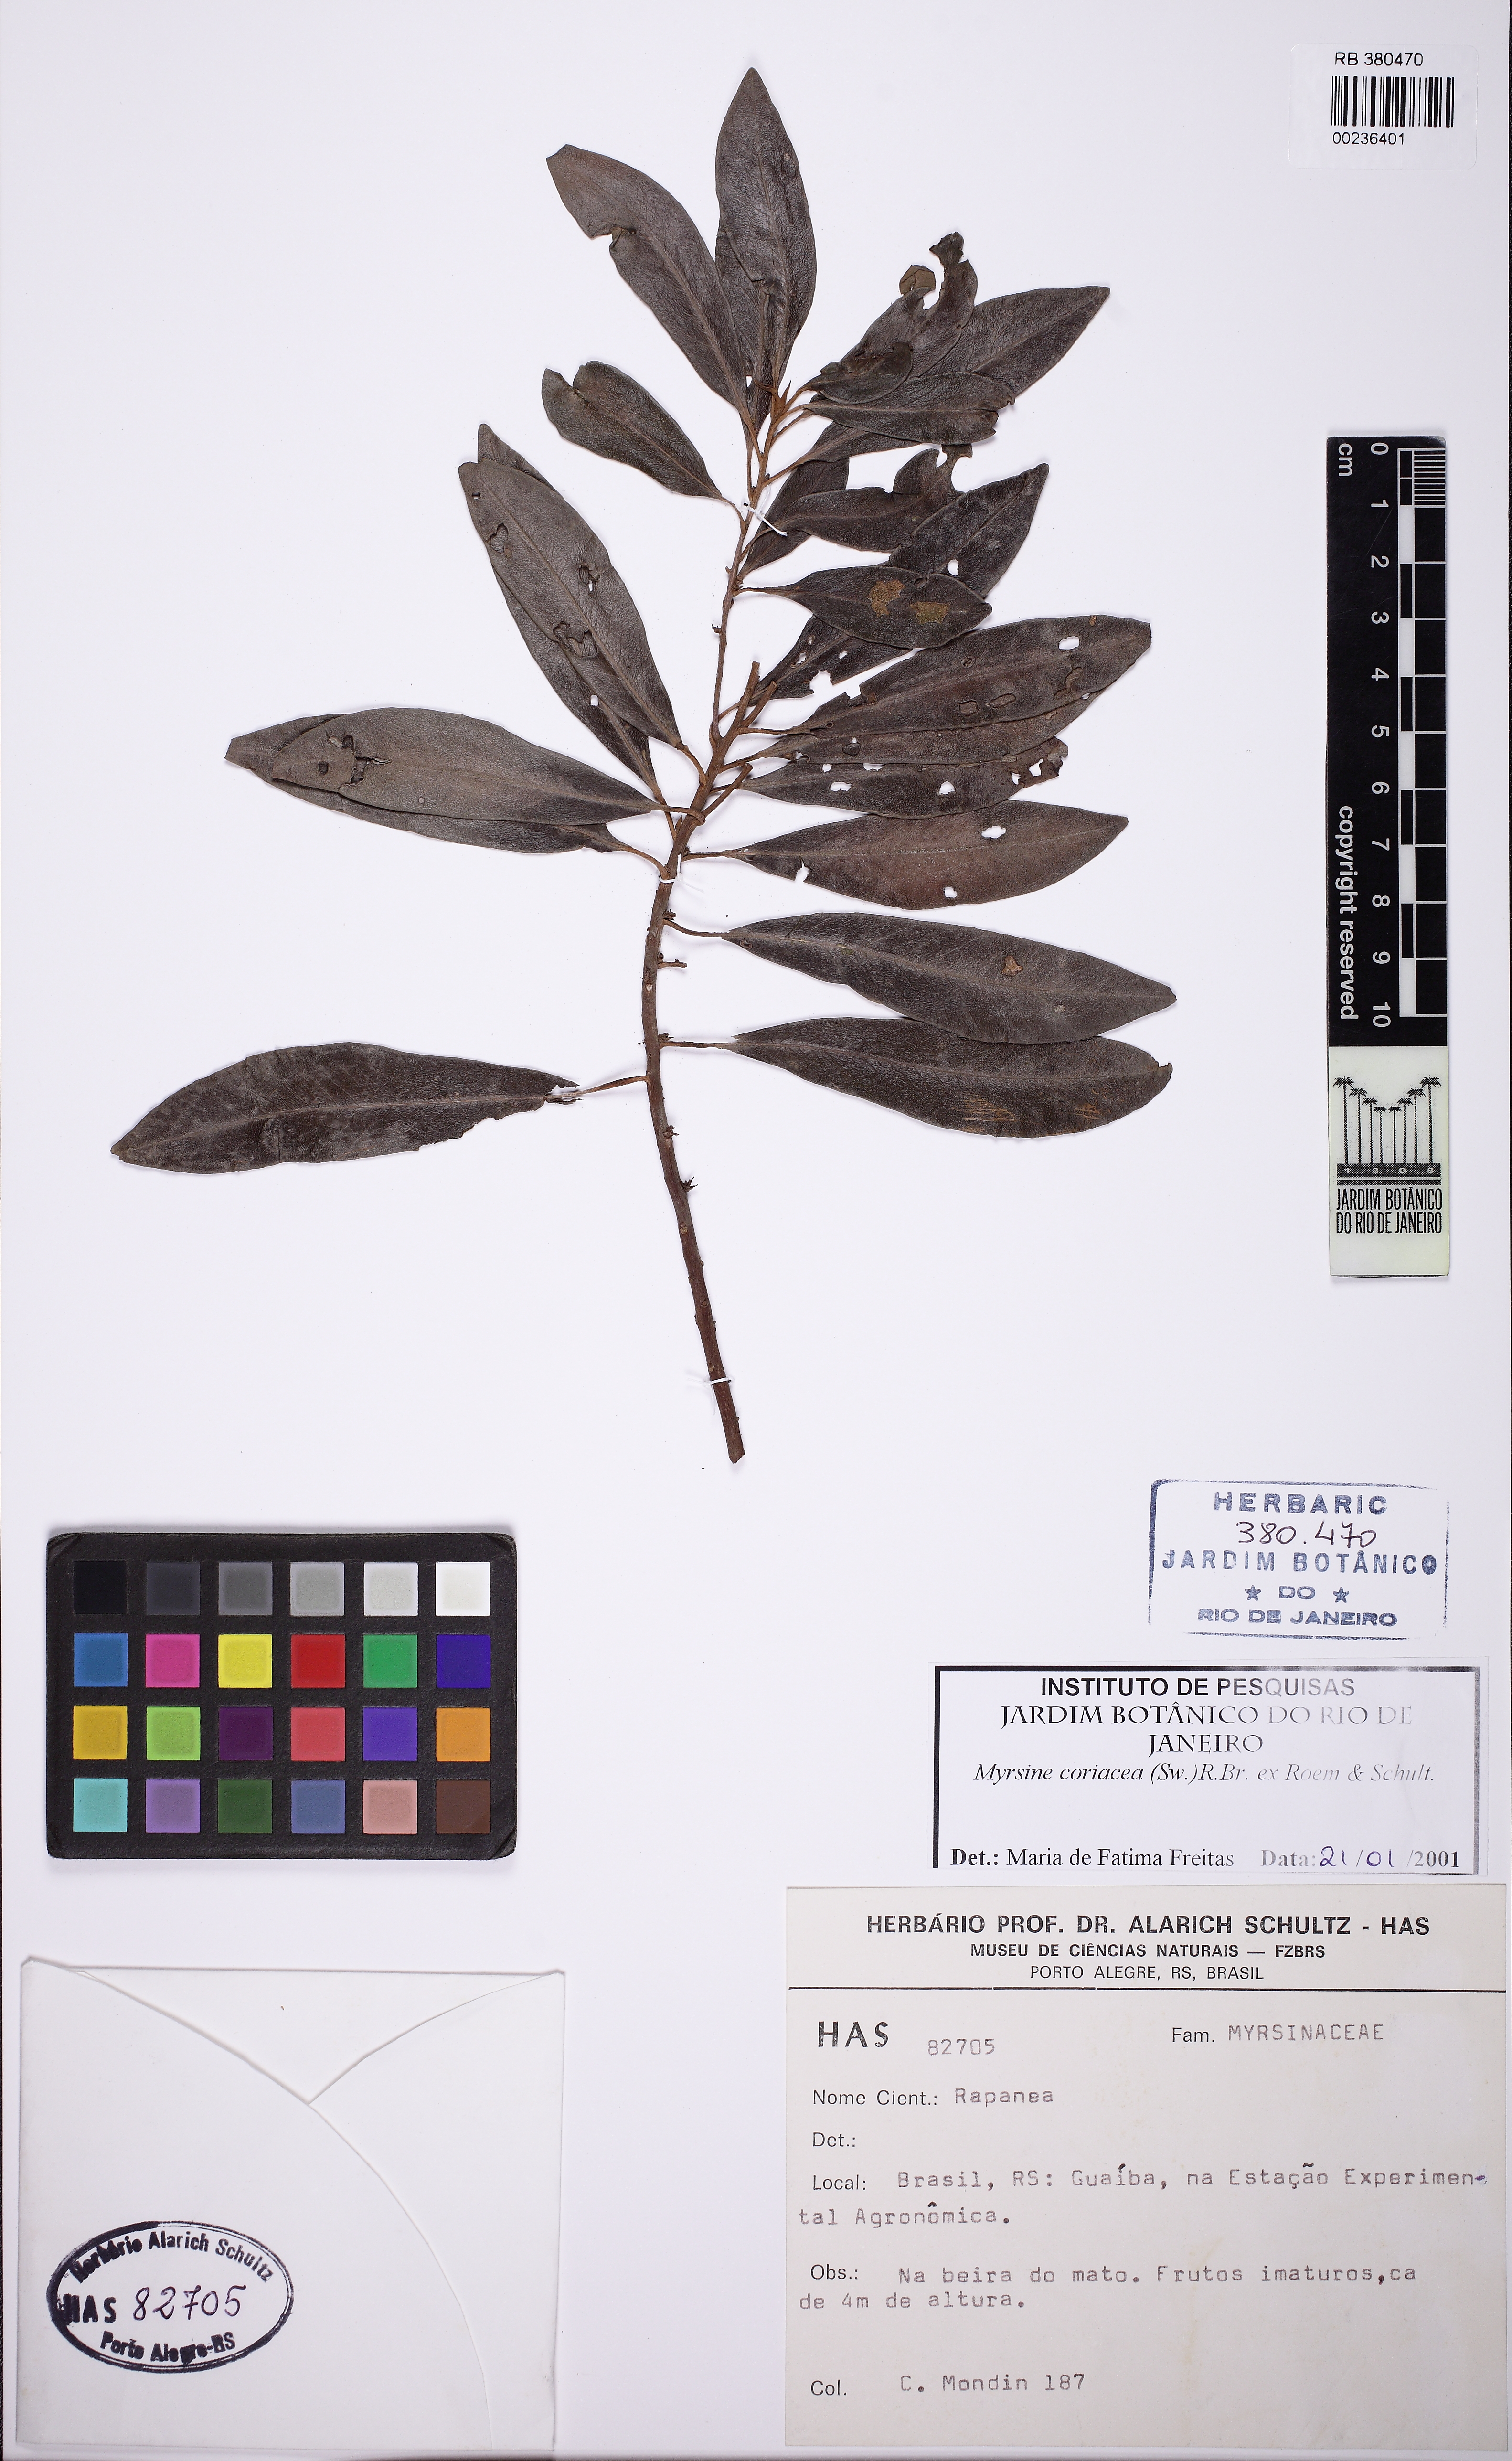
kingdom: Plantae
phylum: Tracheophyta
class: Magnoliopsida
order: Ericales
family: Primulaceae
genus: Myrsine
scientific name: Myrsine coriacea
